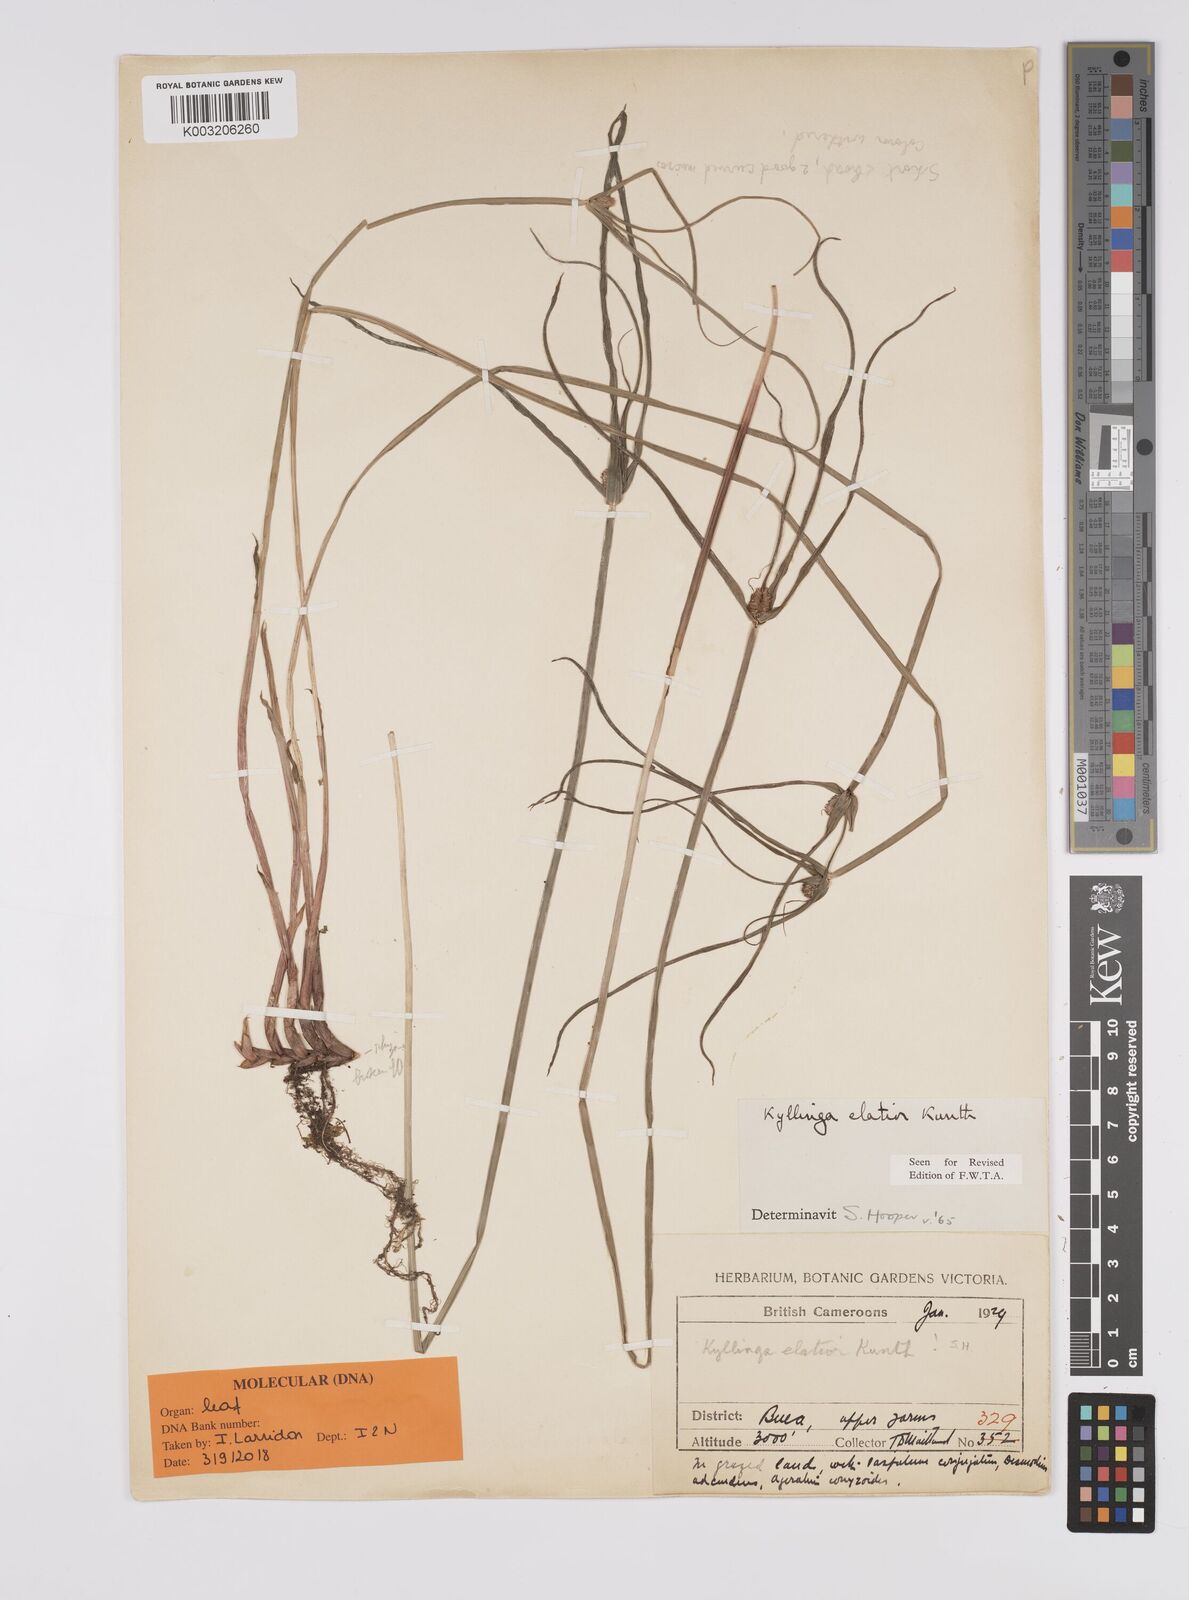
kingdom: Plantae
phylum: Tracheophyta
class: Liliopsida
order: Poales
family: Cyperaceae
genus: Cyperus
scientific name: Cyperus
